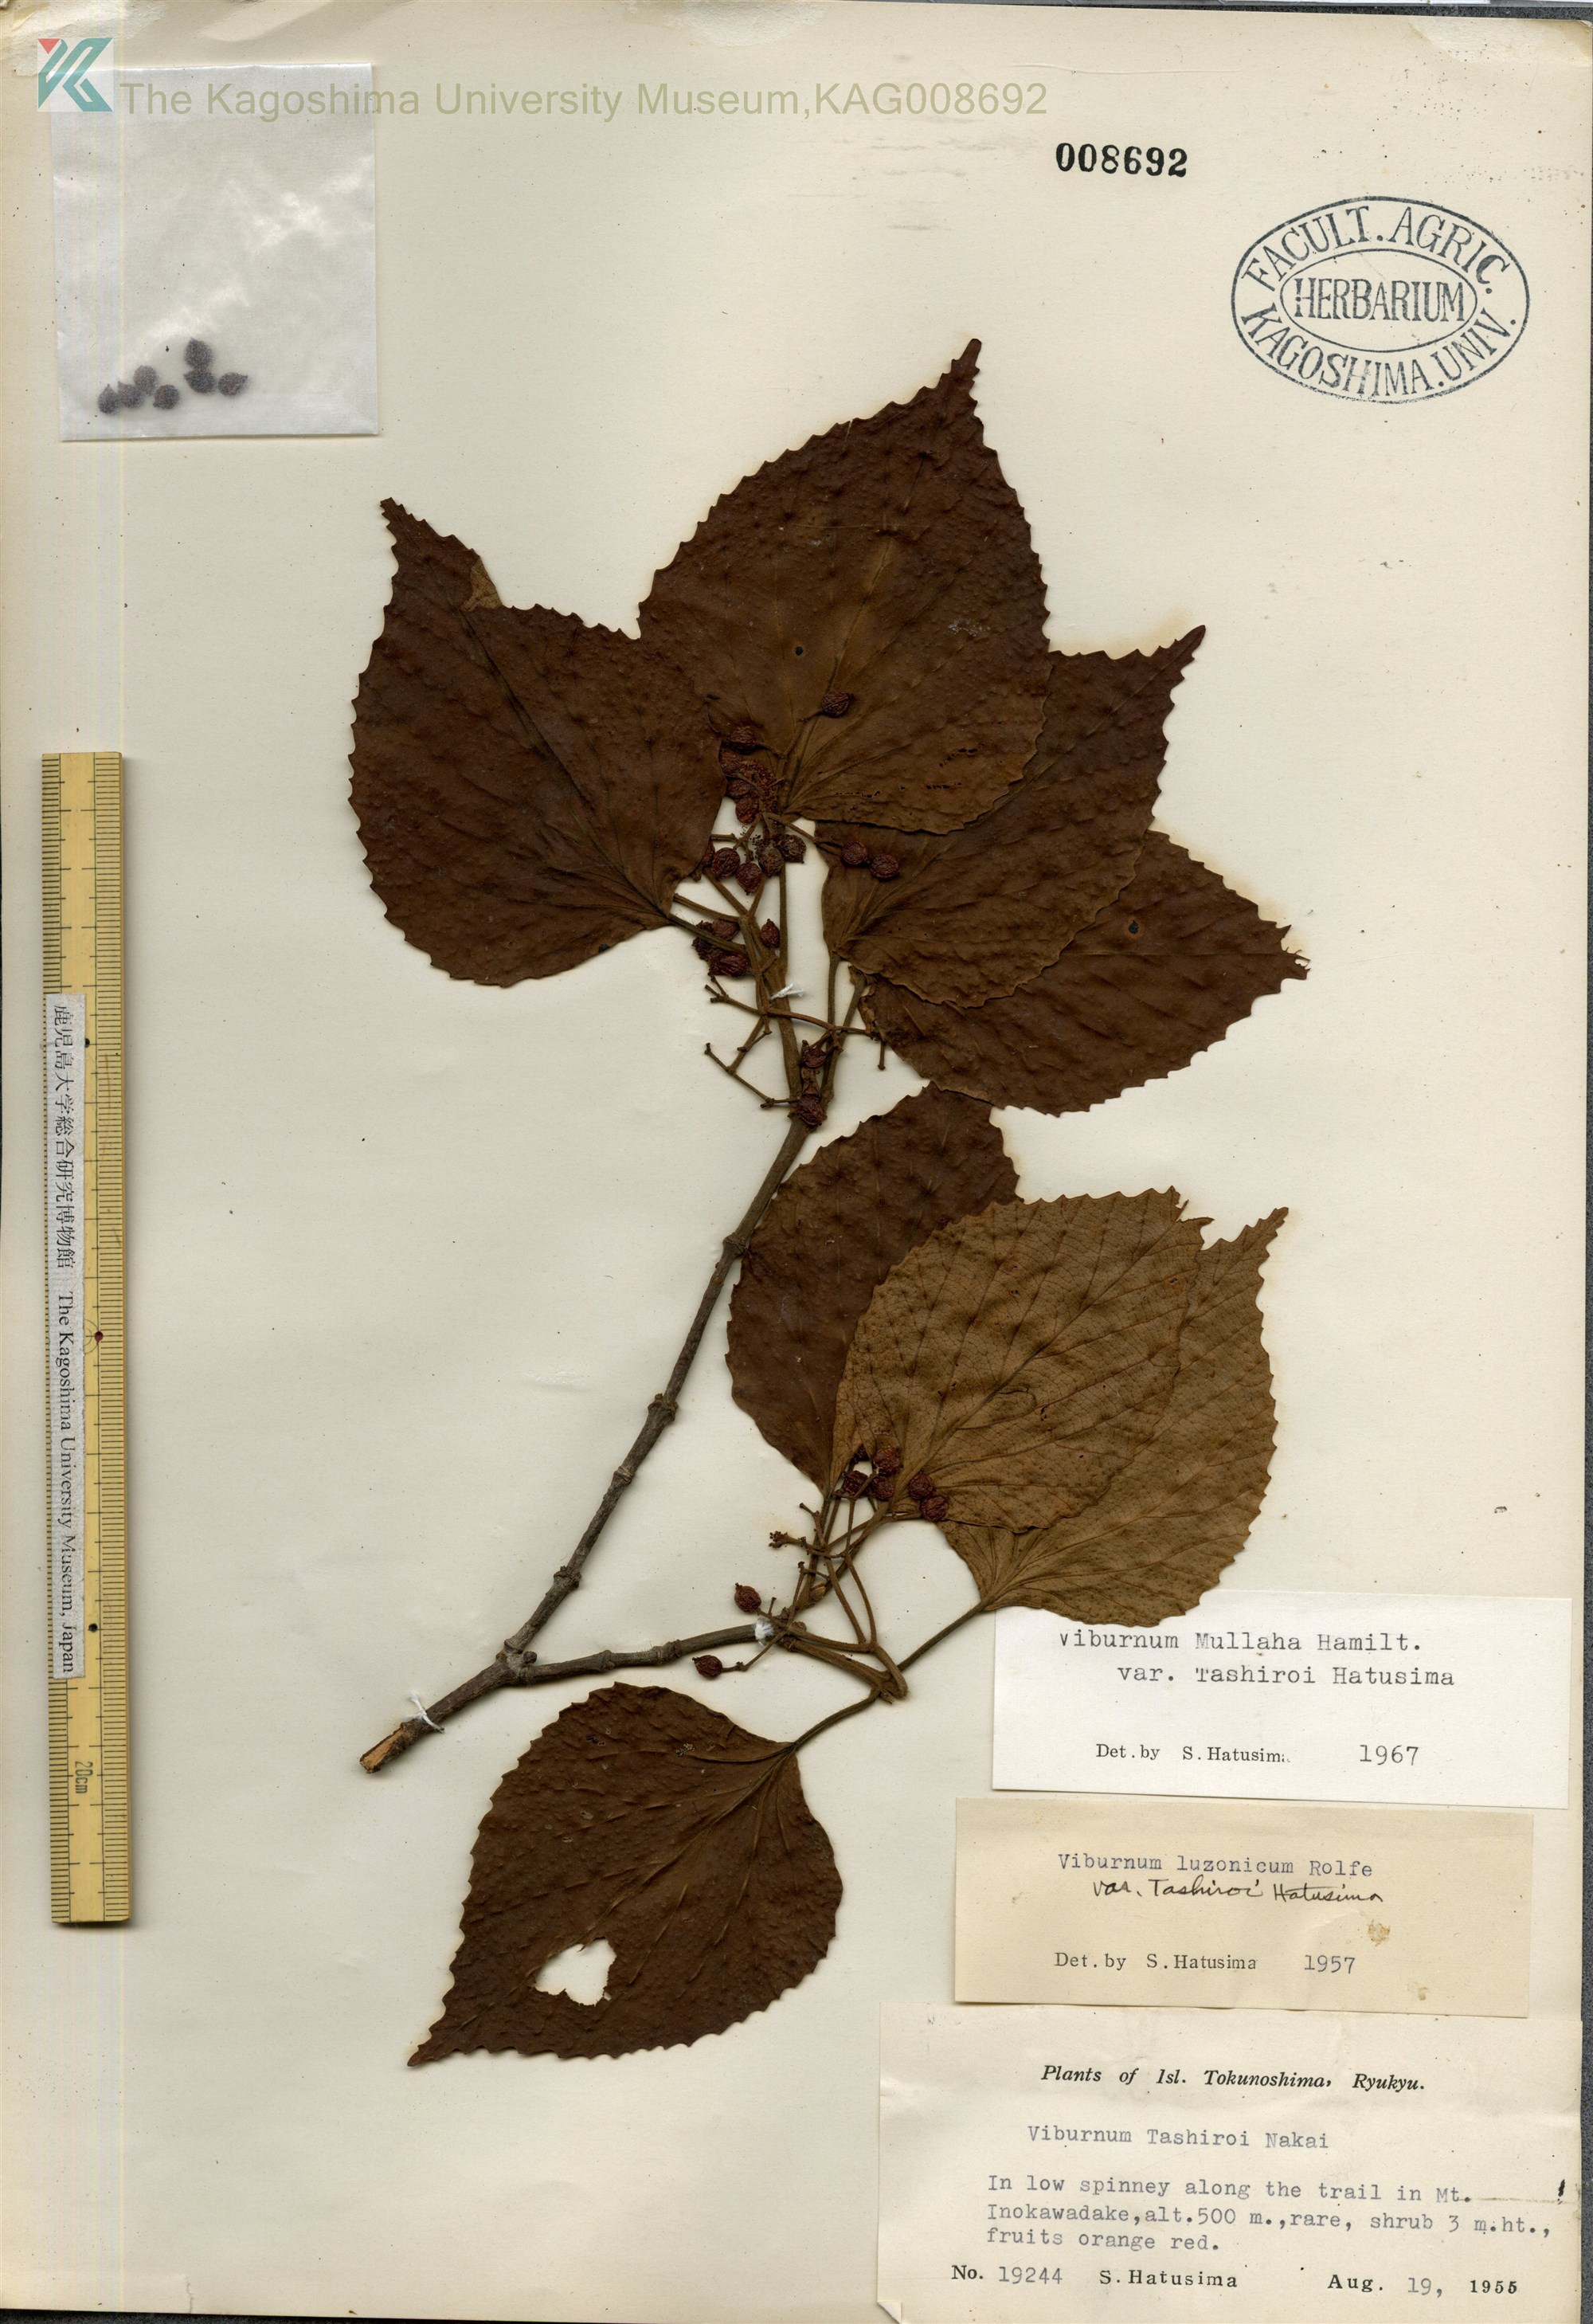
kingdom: Plantae
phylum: Tracheophyta
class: Magnoliopsida
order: Dipsacales
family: Viburnaceae
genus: Viburnum
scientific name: Viburnum luzonicum
